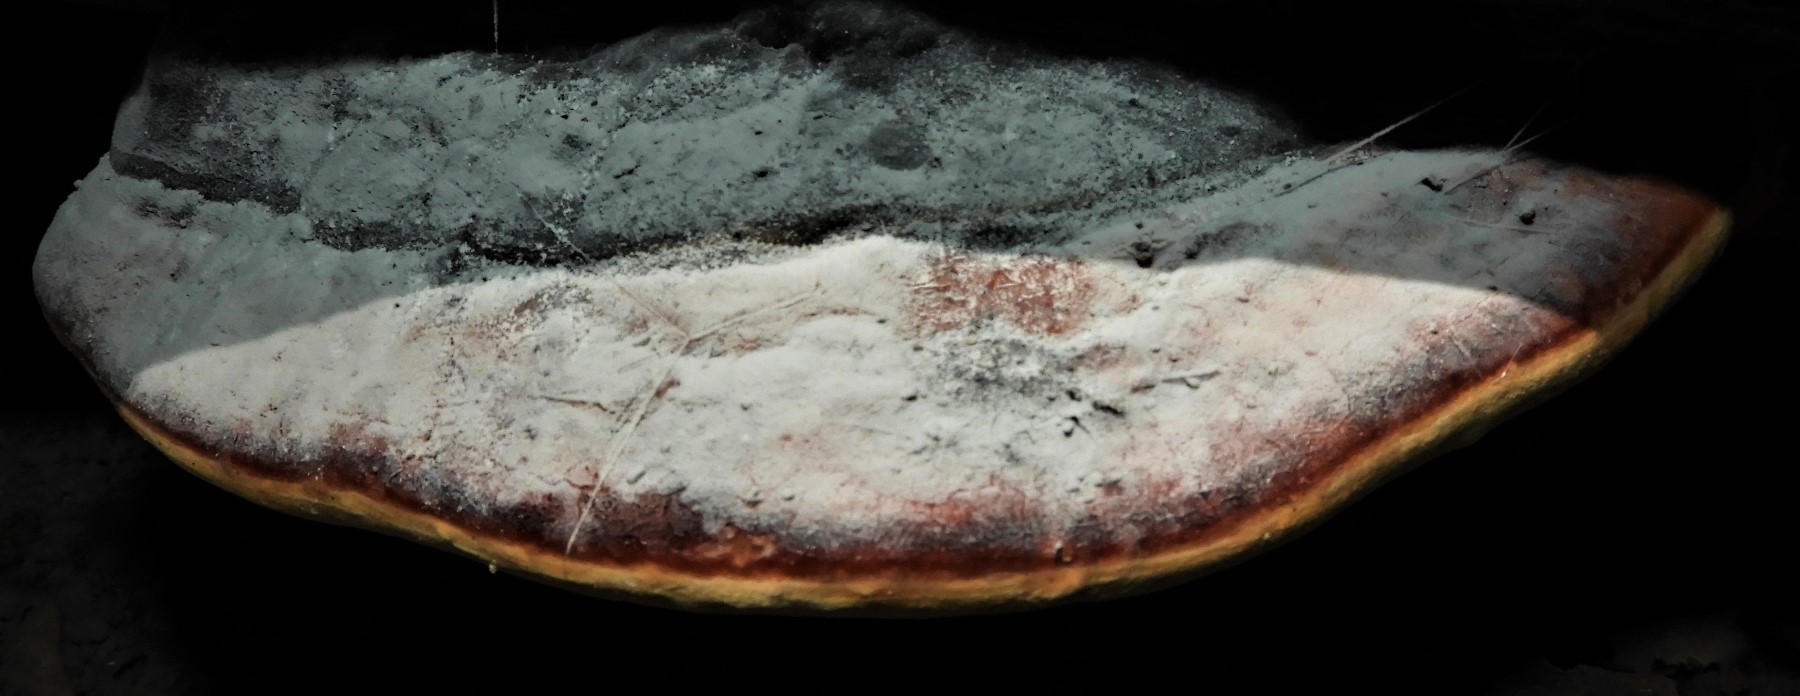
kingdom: Fungi
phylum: Basidiomycota
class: Agaricomycetes
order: Polyporales
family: Fomitopsidaceae
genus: Fomitopsis
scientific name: Fomitopsis pinicola
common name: randbæltet hovporesvamp
